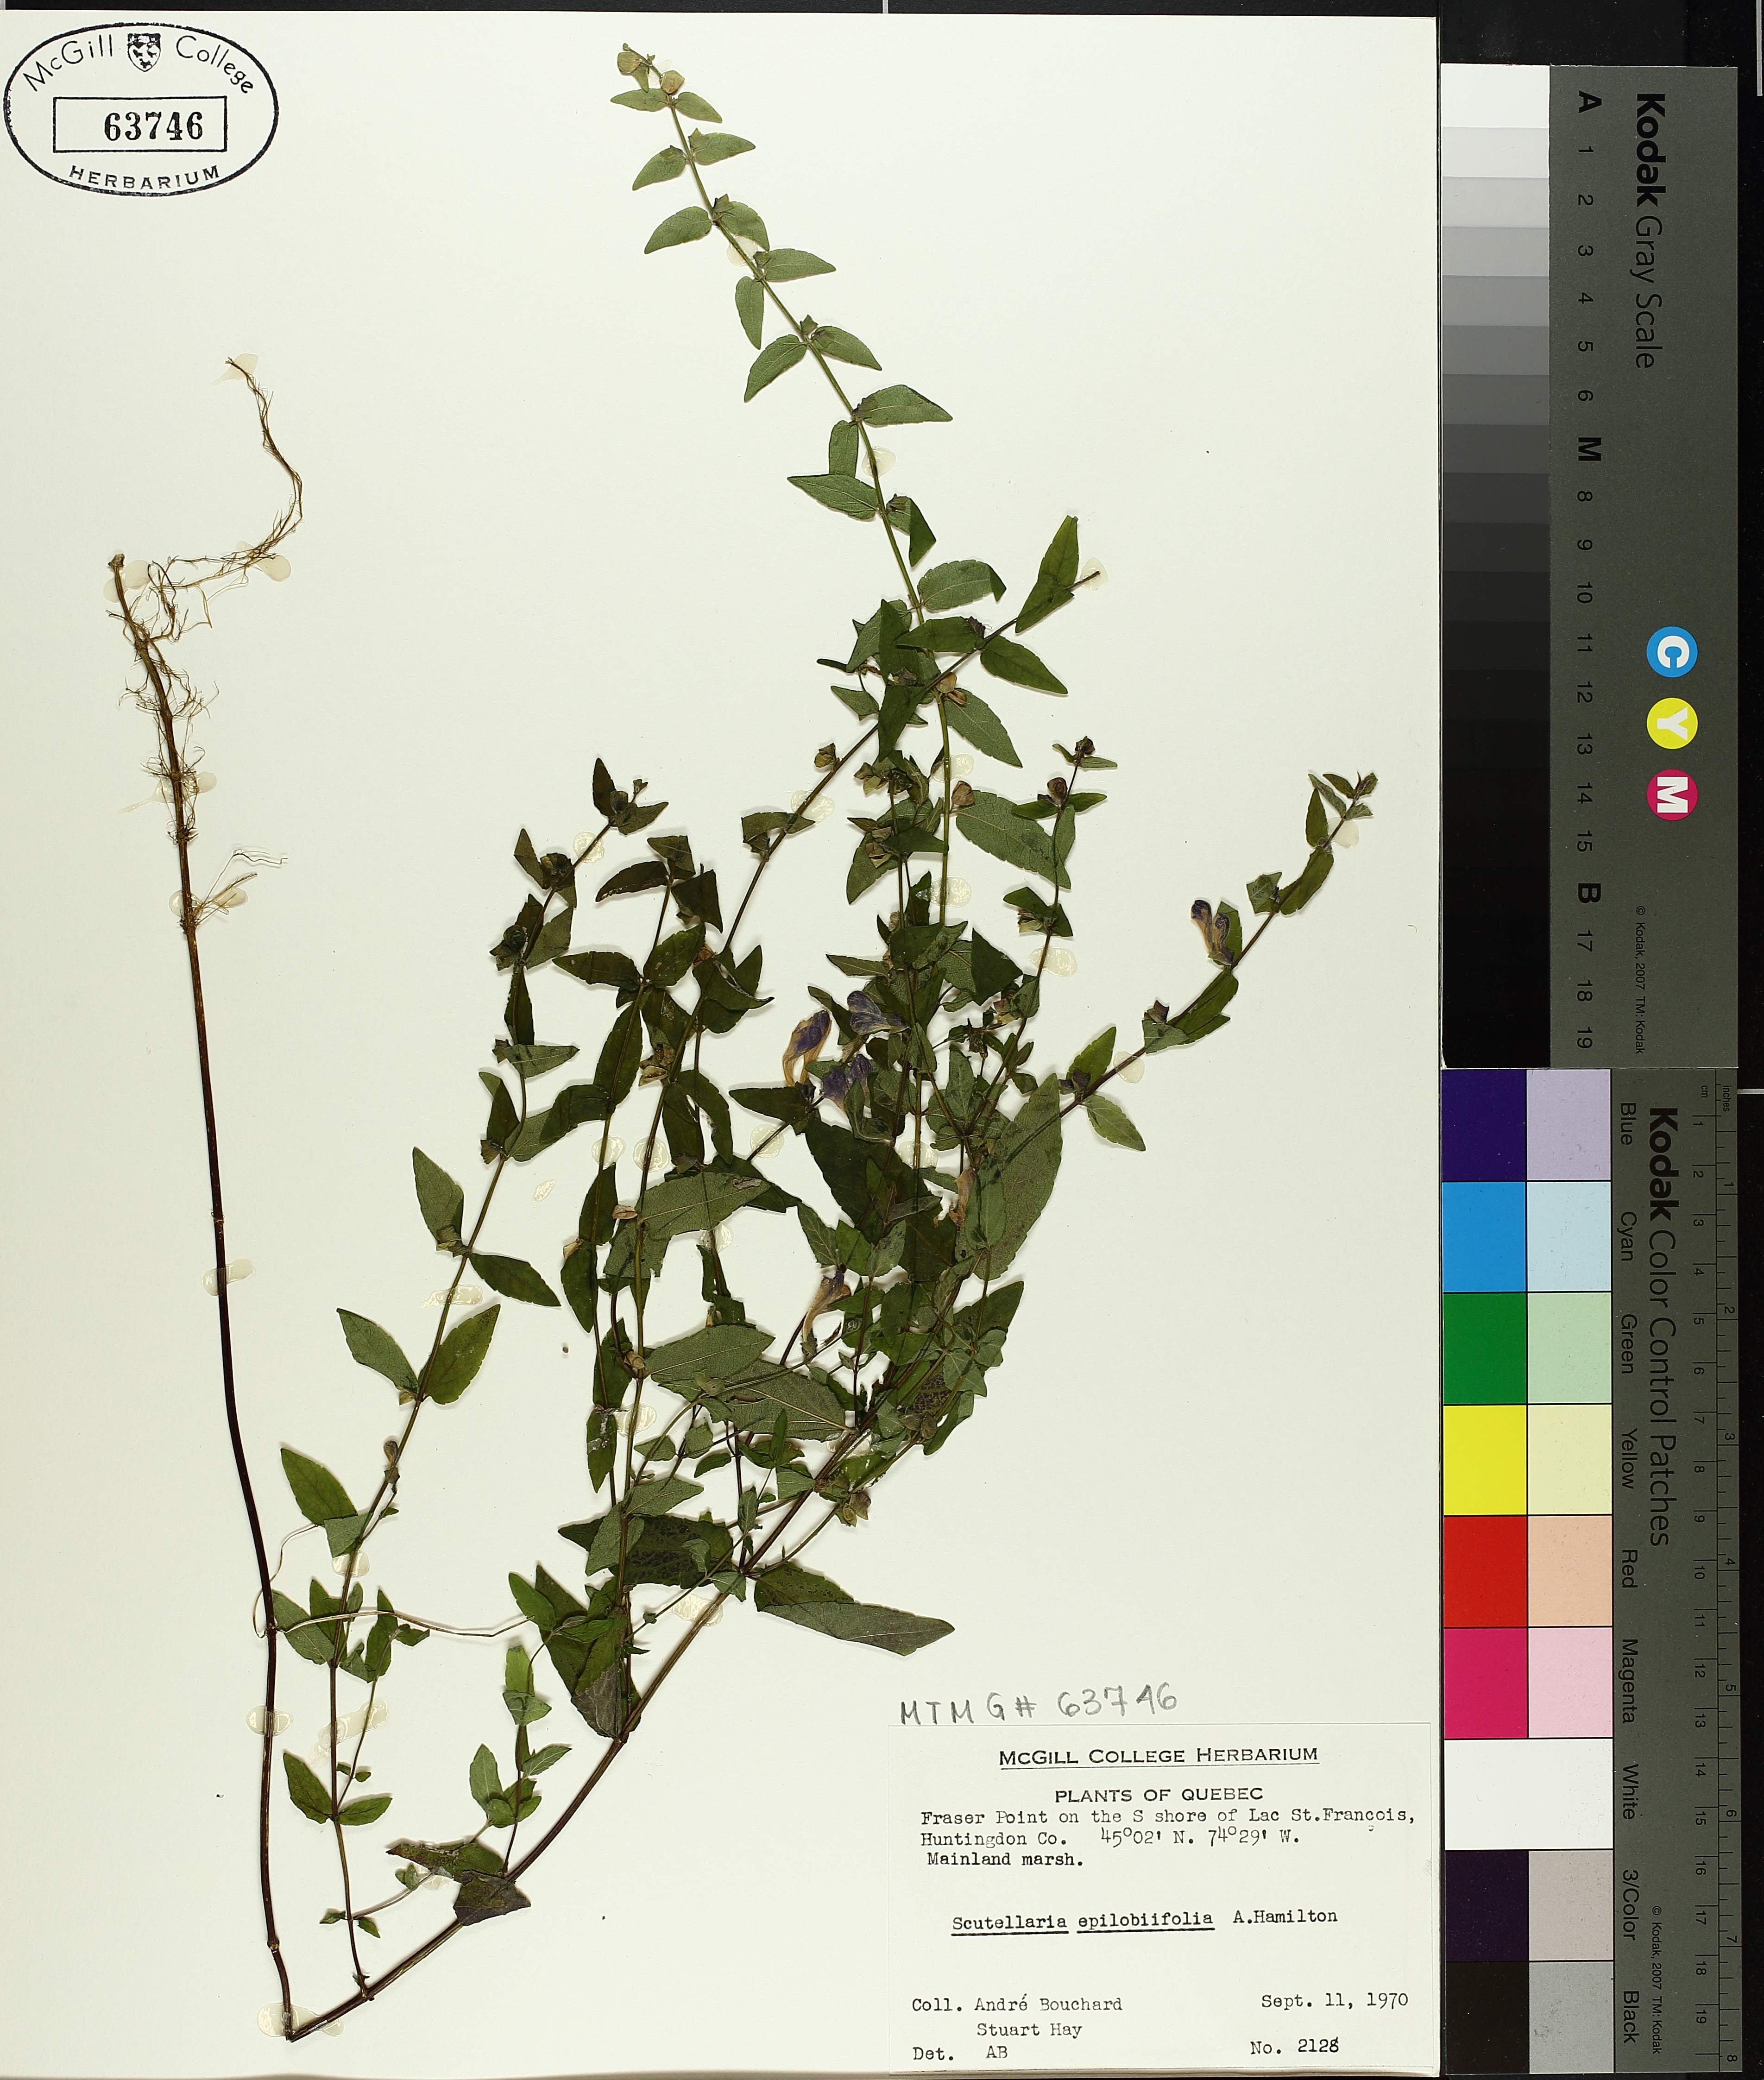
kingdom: Plantae
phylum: Tracheophyta
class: Magnoliopsida
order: Lamiales
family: Lamiaceae
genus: Scutellaria
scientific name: Scutellaria galericulata
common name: Skullcap
